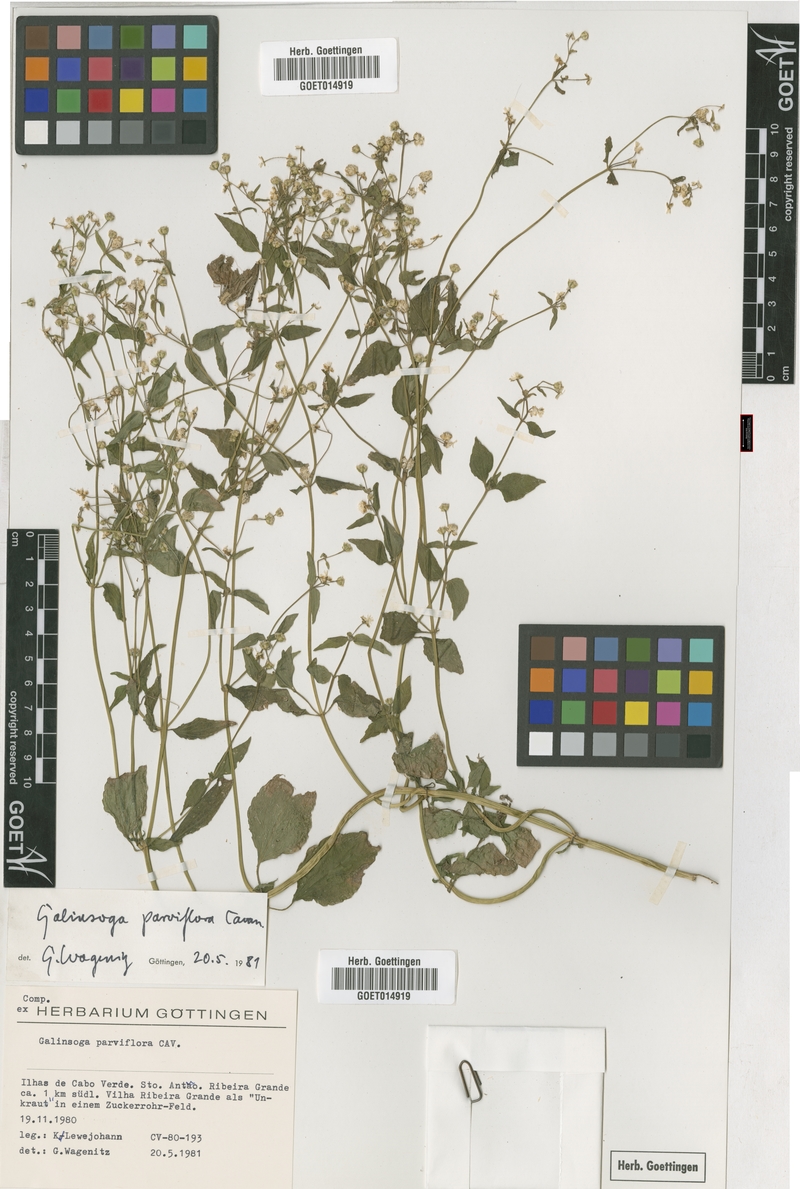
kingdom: Plantae
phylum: Tracheophyta
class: Magnoliopsida
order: Asterales
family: Asteraceae
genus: Galinsoga
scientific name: Galinsoga parviflora
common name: Gallant soldier
